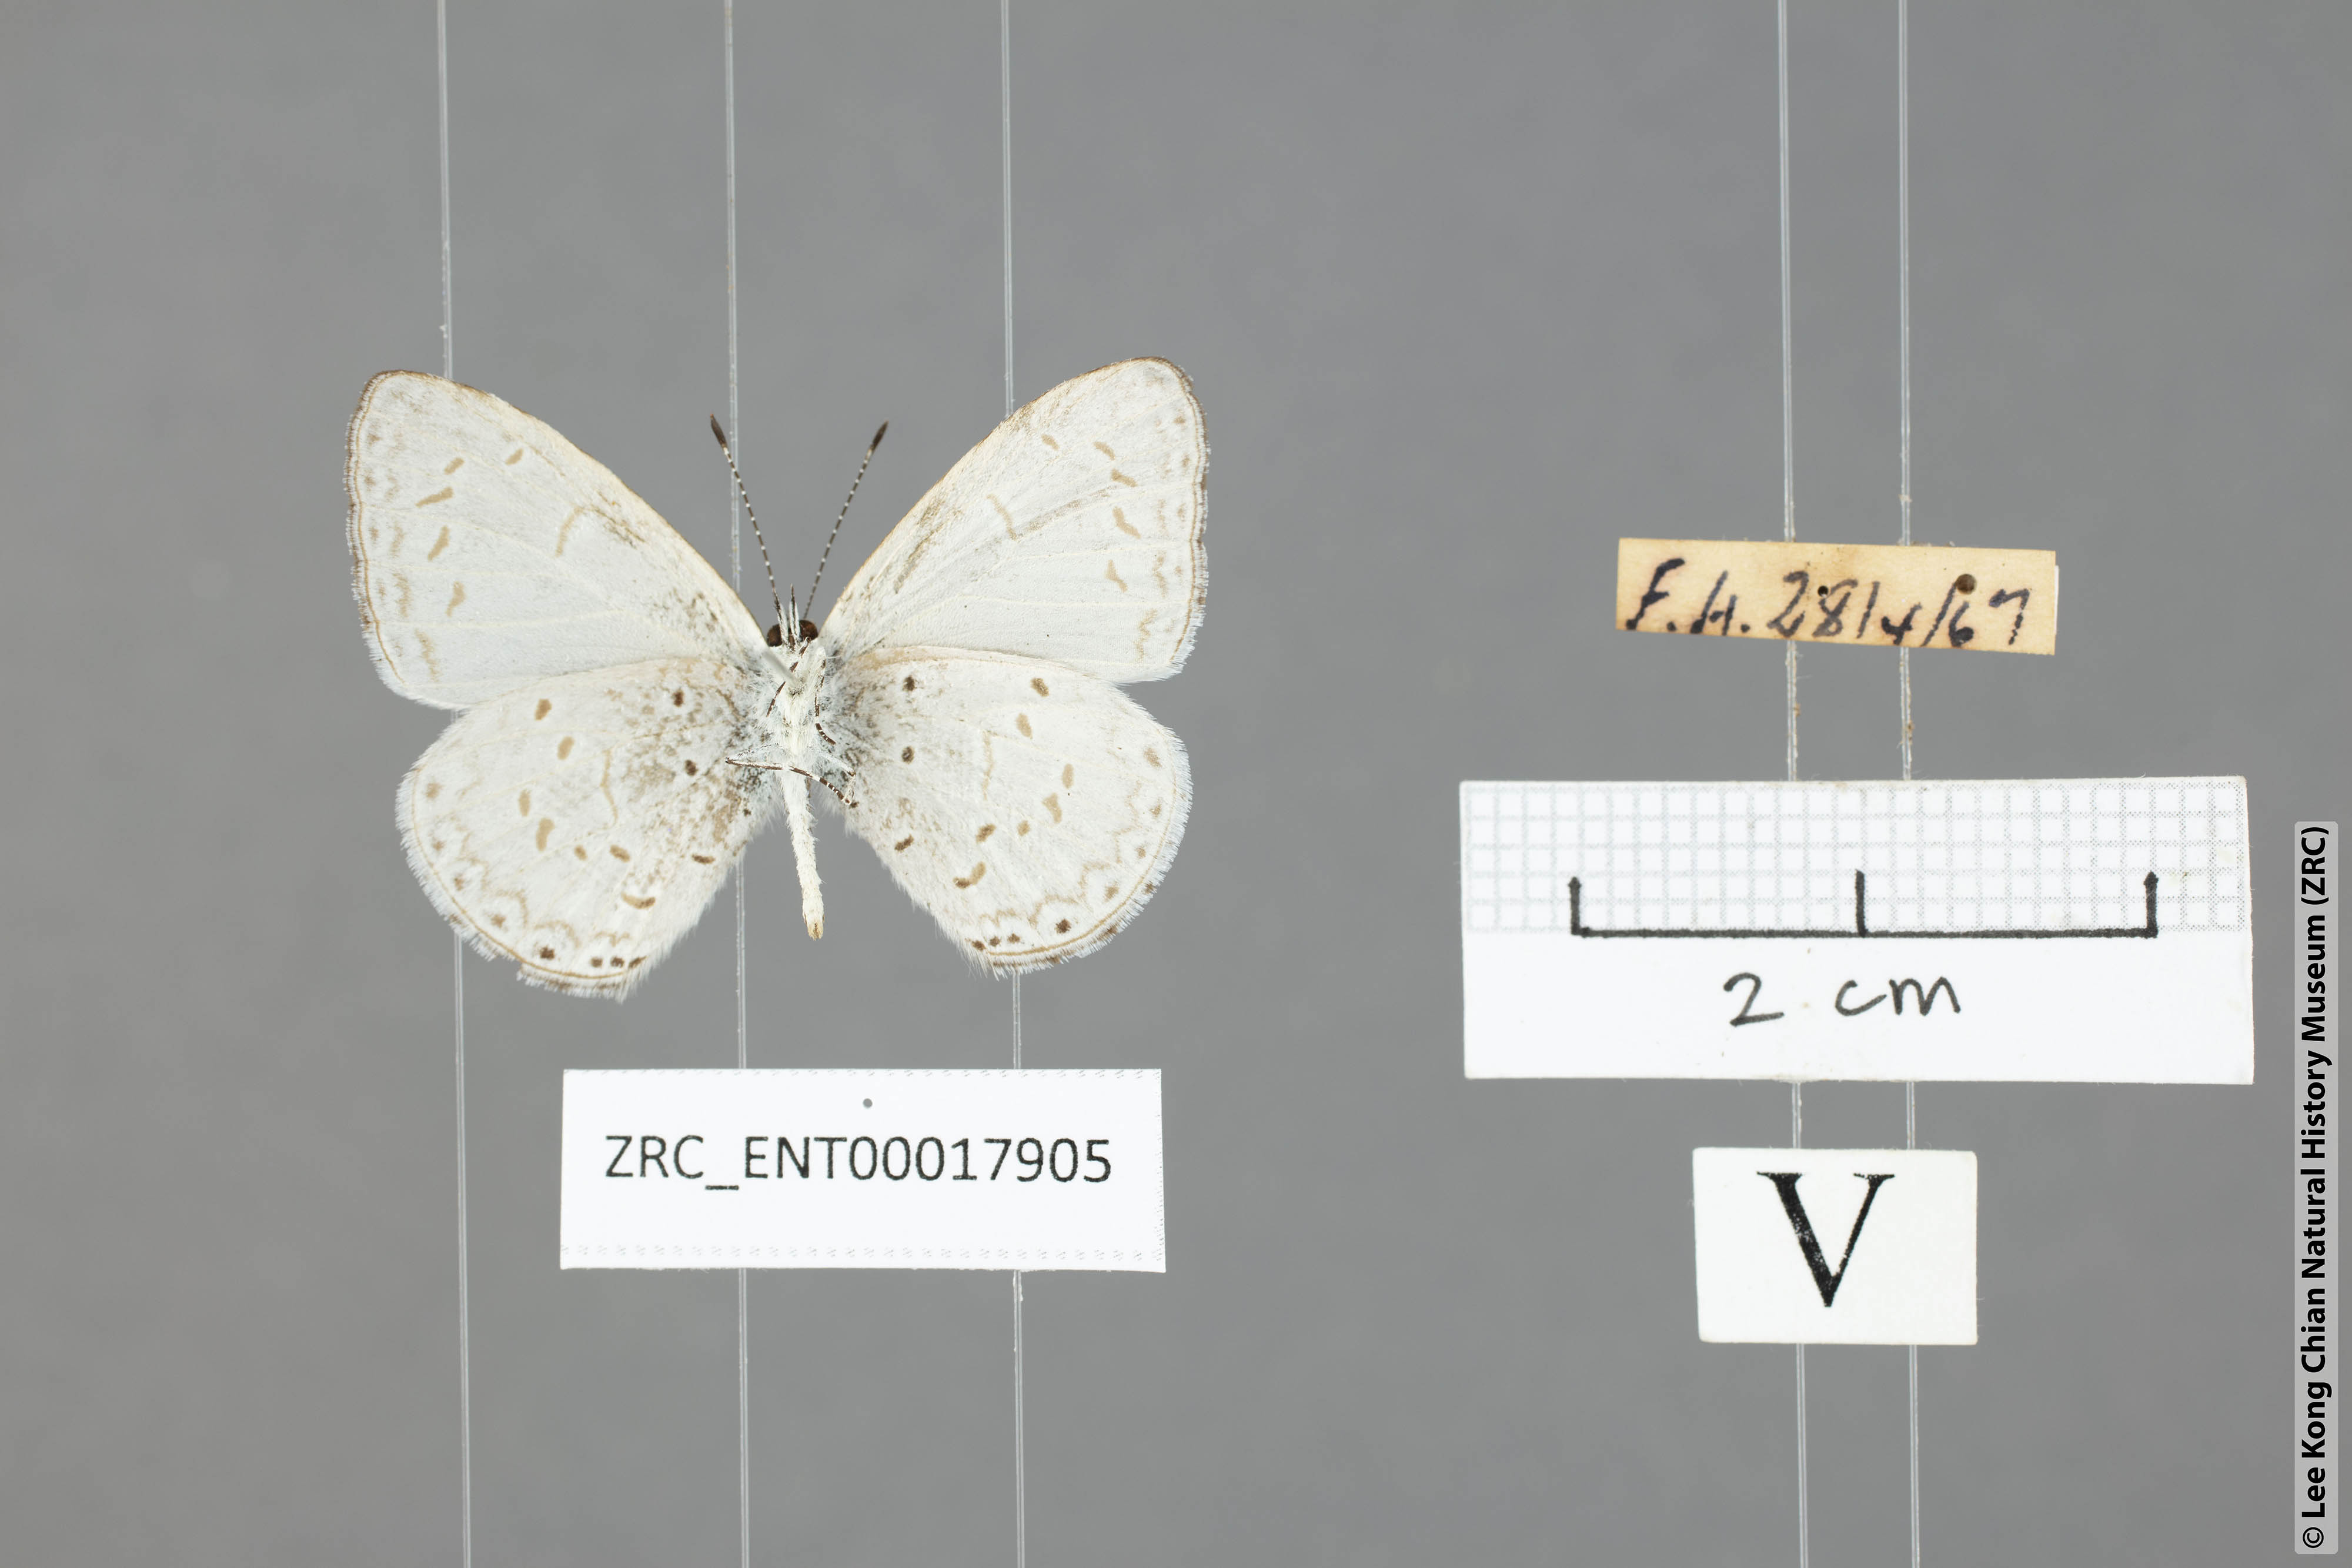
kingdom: Animalia
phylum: Arthropoda
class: Insecta
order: Lepidoptera
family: Lycaenidae
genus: Udara
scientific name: Udara
